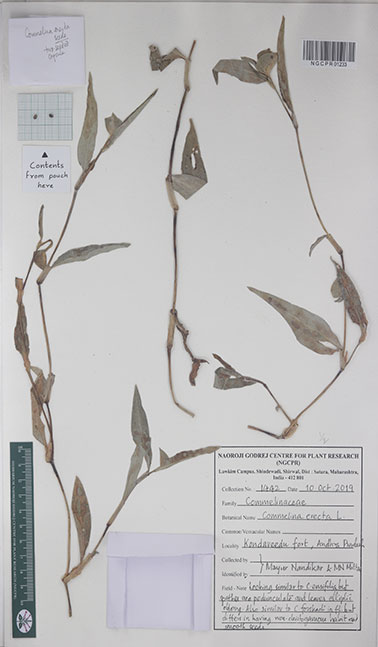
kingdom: Plantae
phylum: Tracheophyta
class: Liliopsida
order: Commelinales
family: Commelinaceae
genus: Commelina
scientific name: Commelina erecta
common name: Blousel blommetjie
